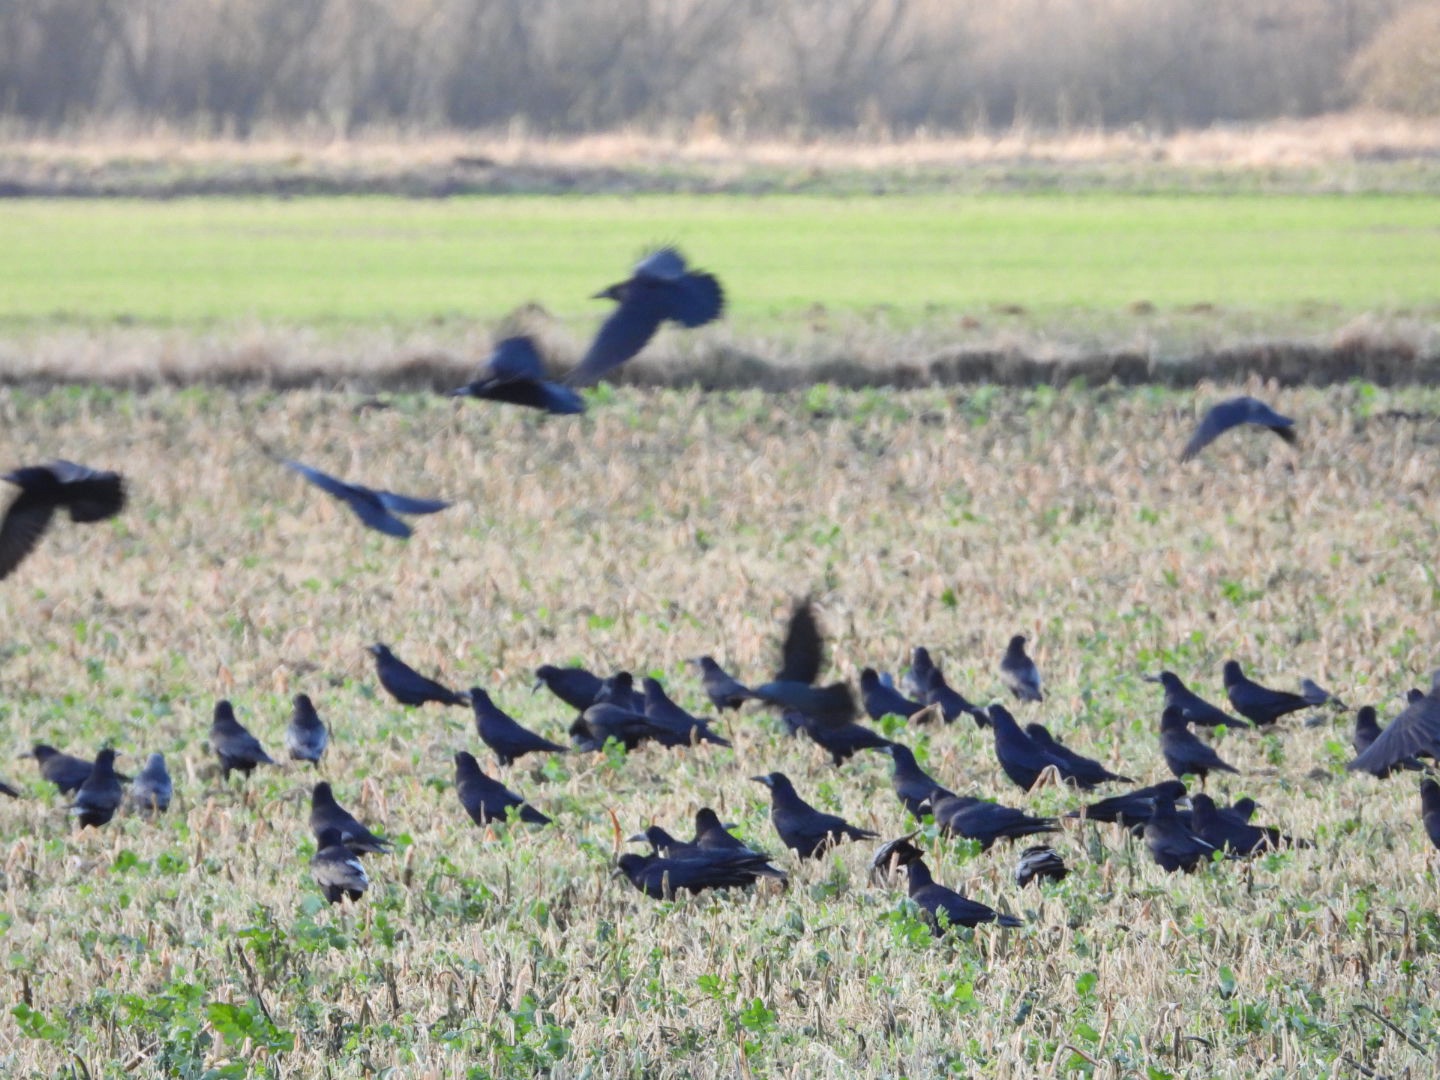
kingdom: Animalia
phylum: Chordata
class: Aves
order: Passeriformes
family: Corvidae
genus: Corvus
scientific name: Corvus frugilegus
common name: Råge
